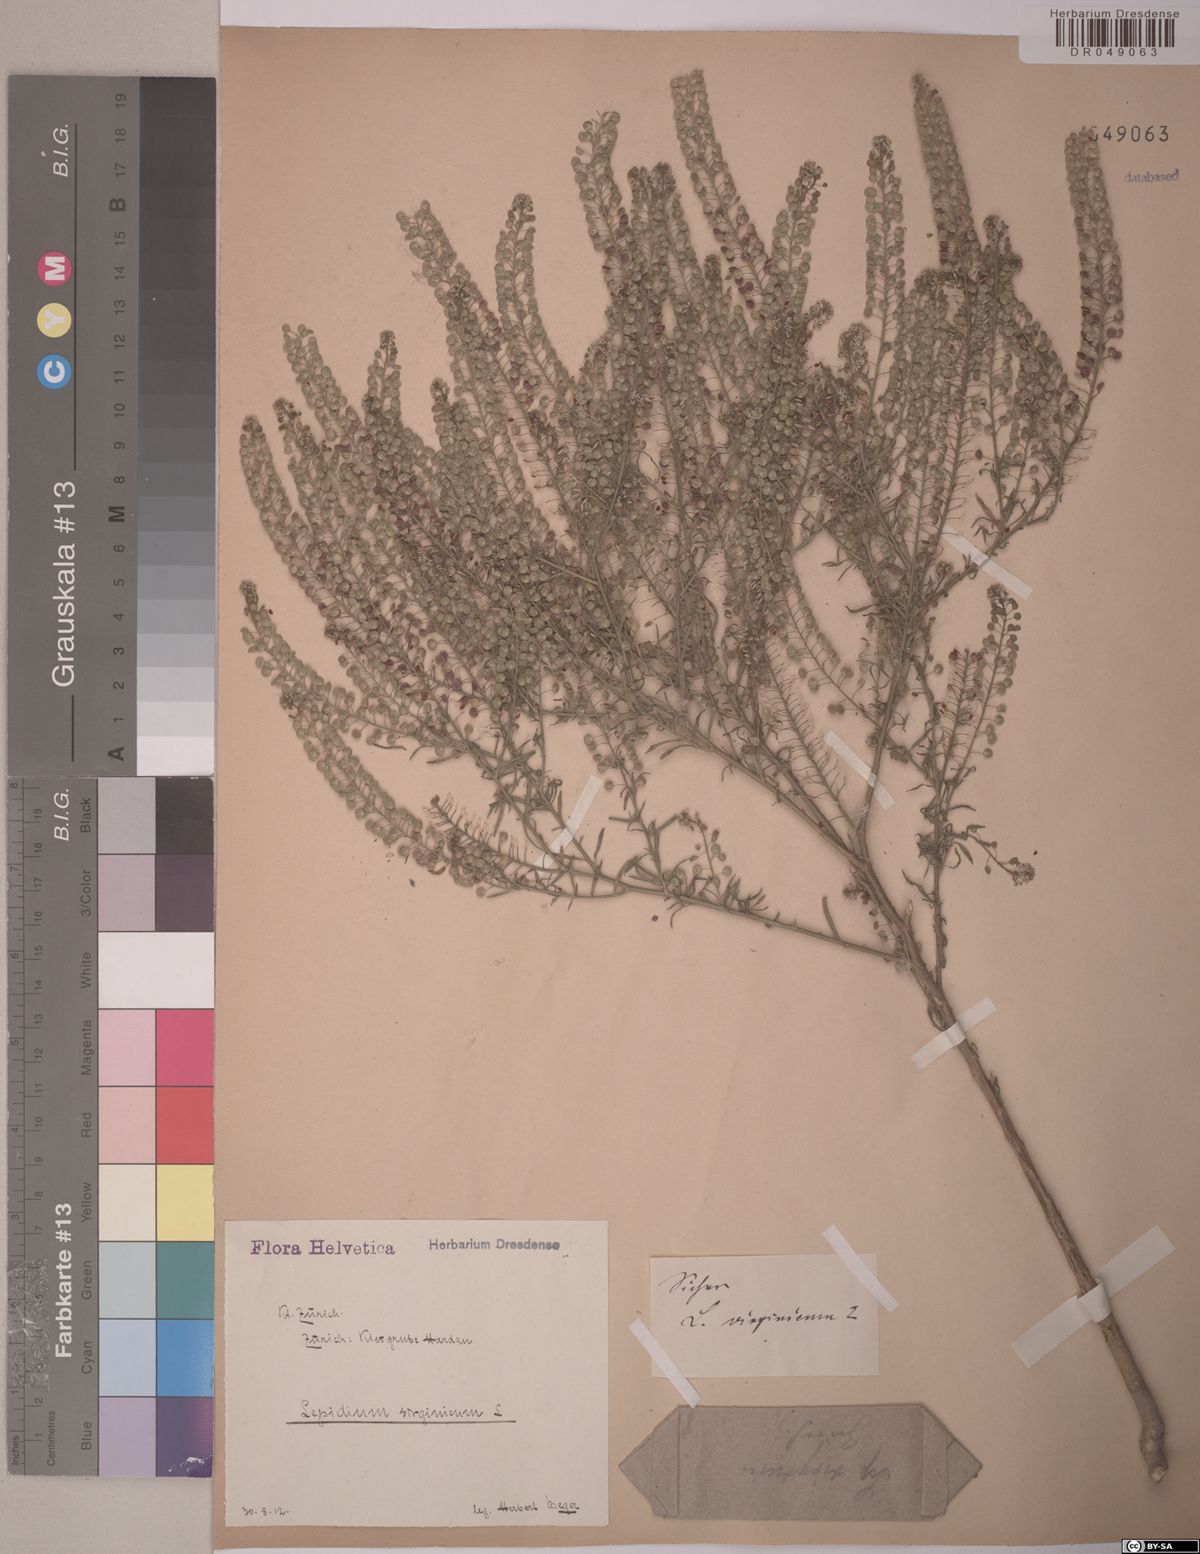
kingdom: Plantae
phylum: Tracheophyta
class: Magnoliopsida
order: Brassicales
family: Brassicaceae
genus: Lepidium
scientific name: Lepidium virginicum
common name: Least pepperwort
